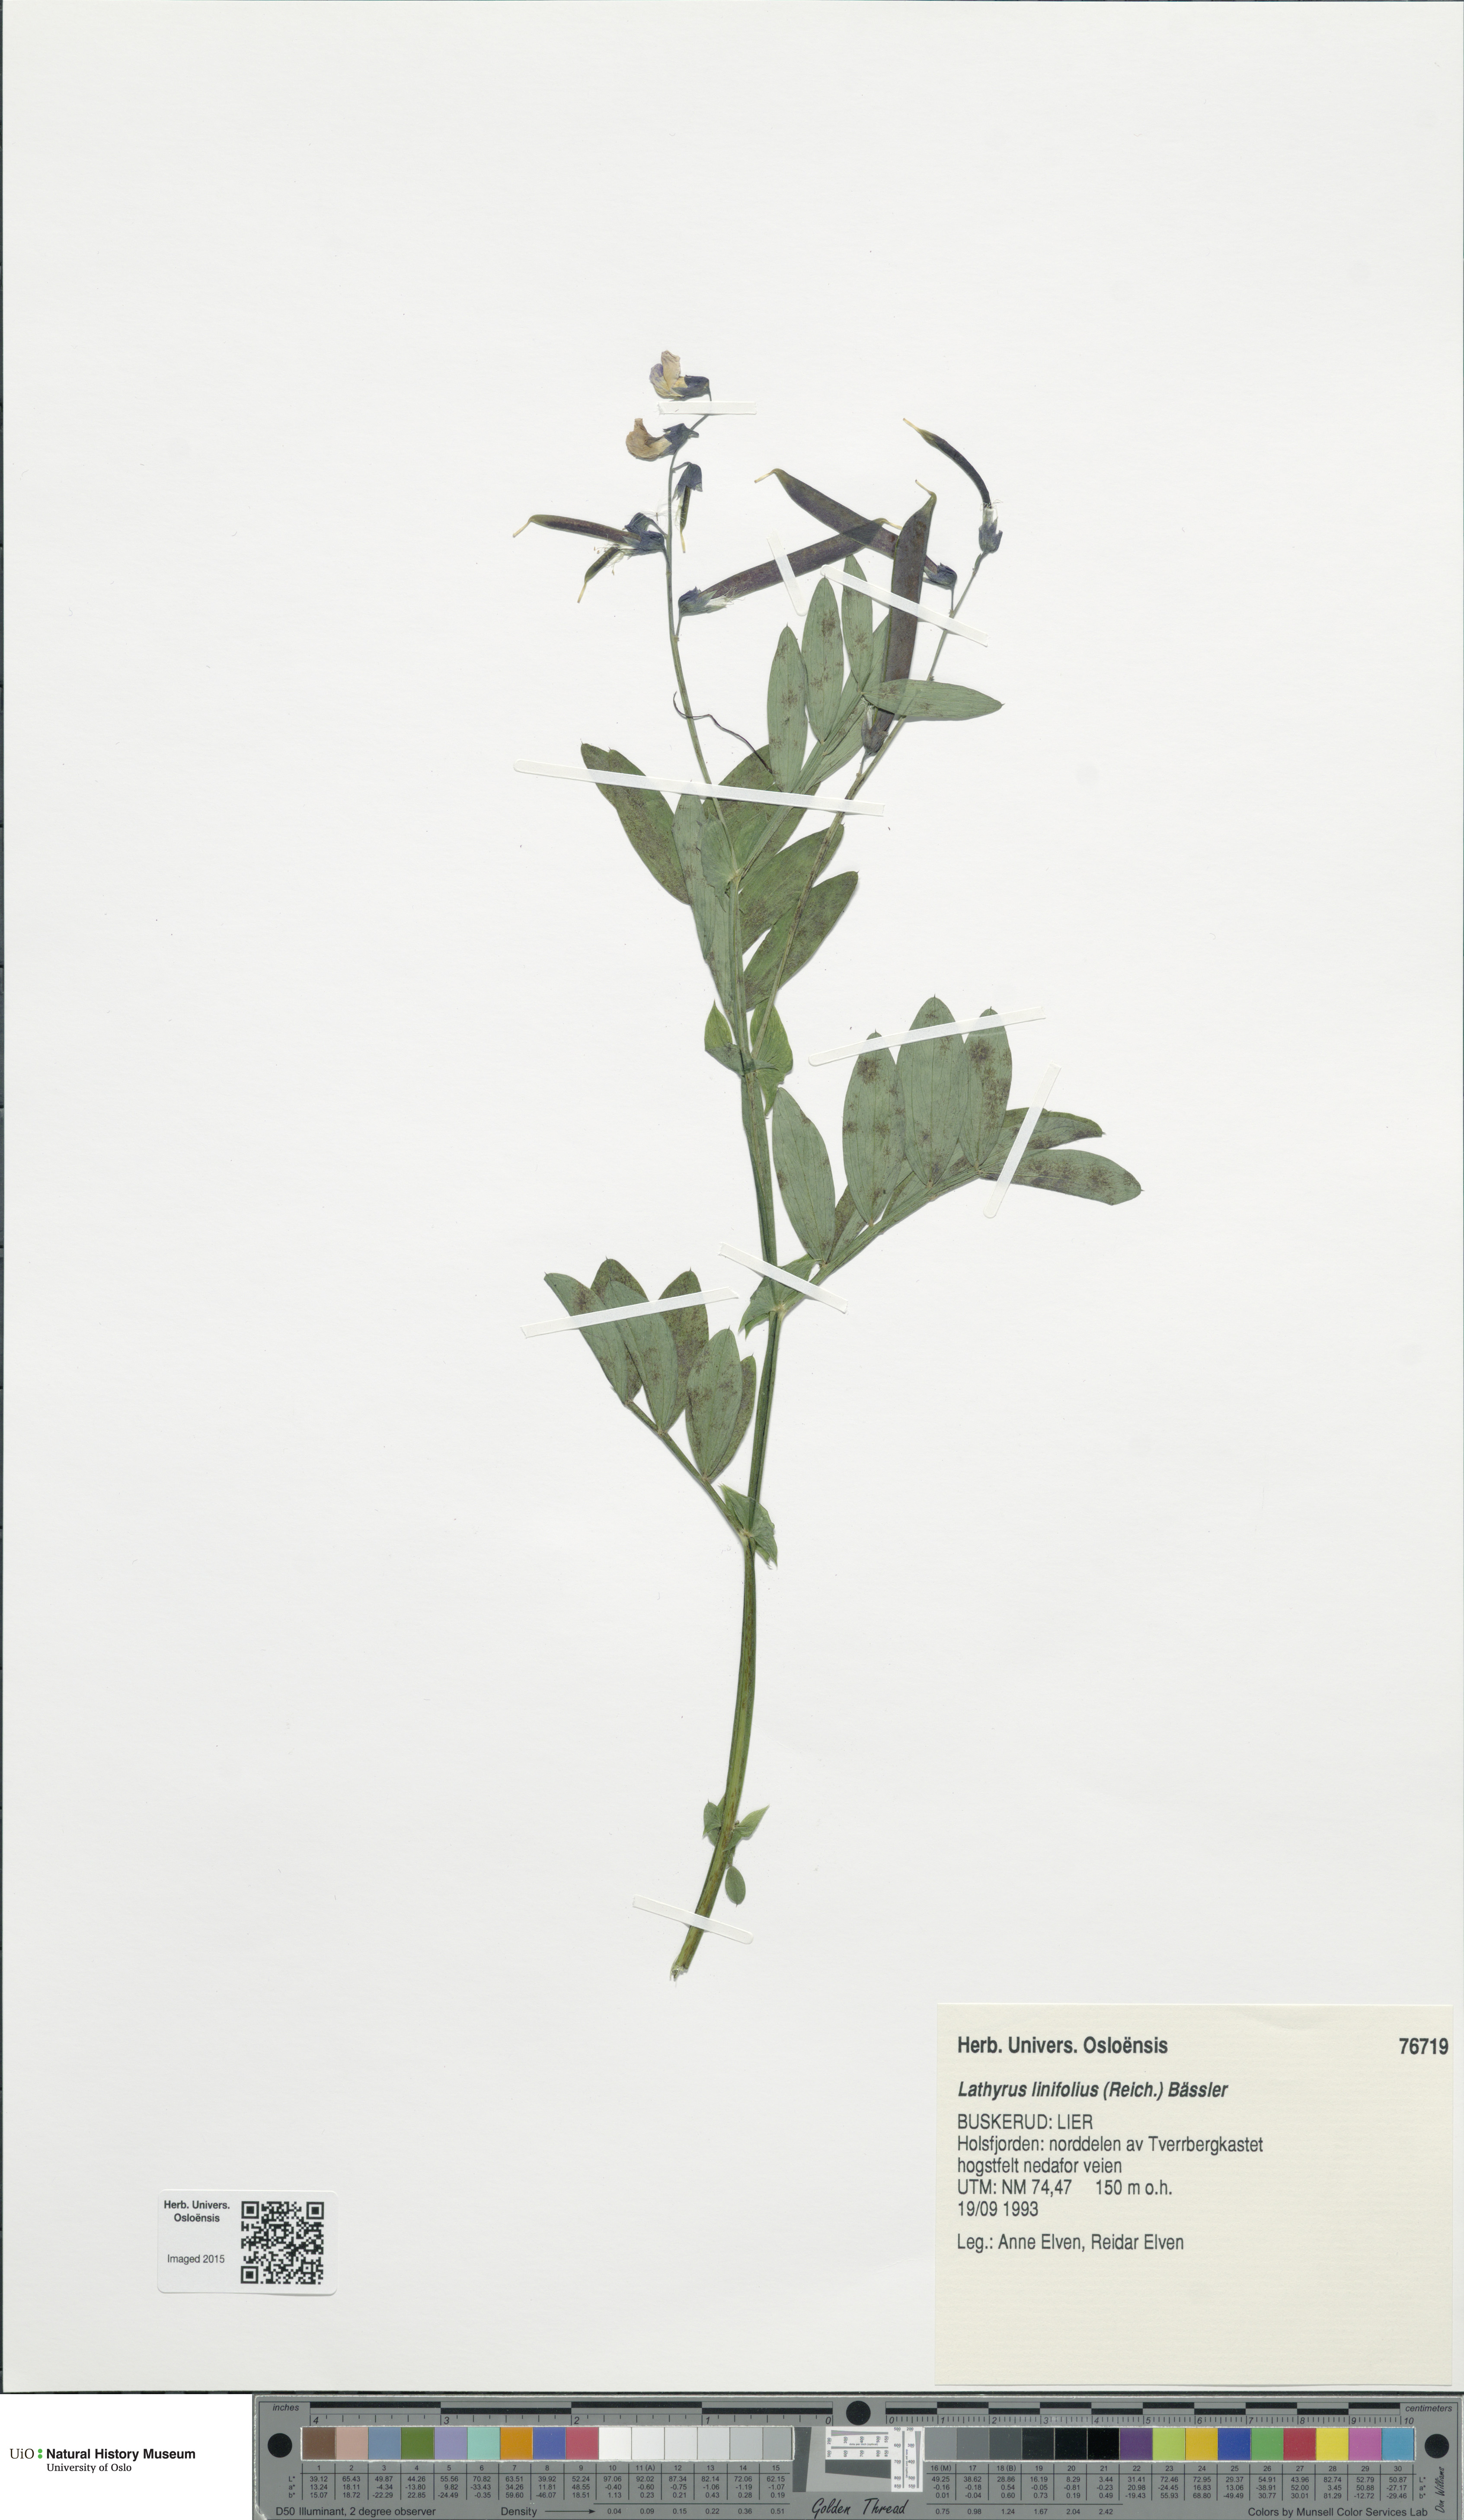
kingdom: Plantae
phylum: Tracheophyta
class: Magnoliopsida
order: Fabales
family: Fabaceae
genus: Lathyrus
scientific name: Lathyrus linifolius
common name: Bitter-vetch
